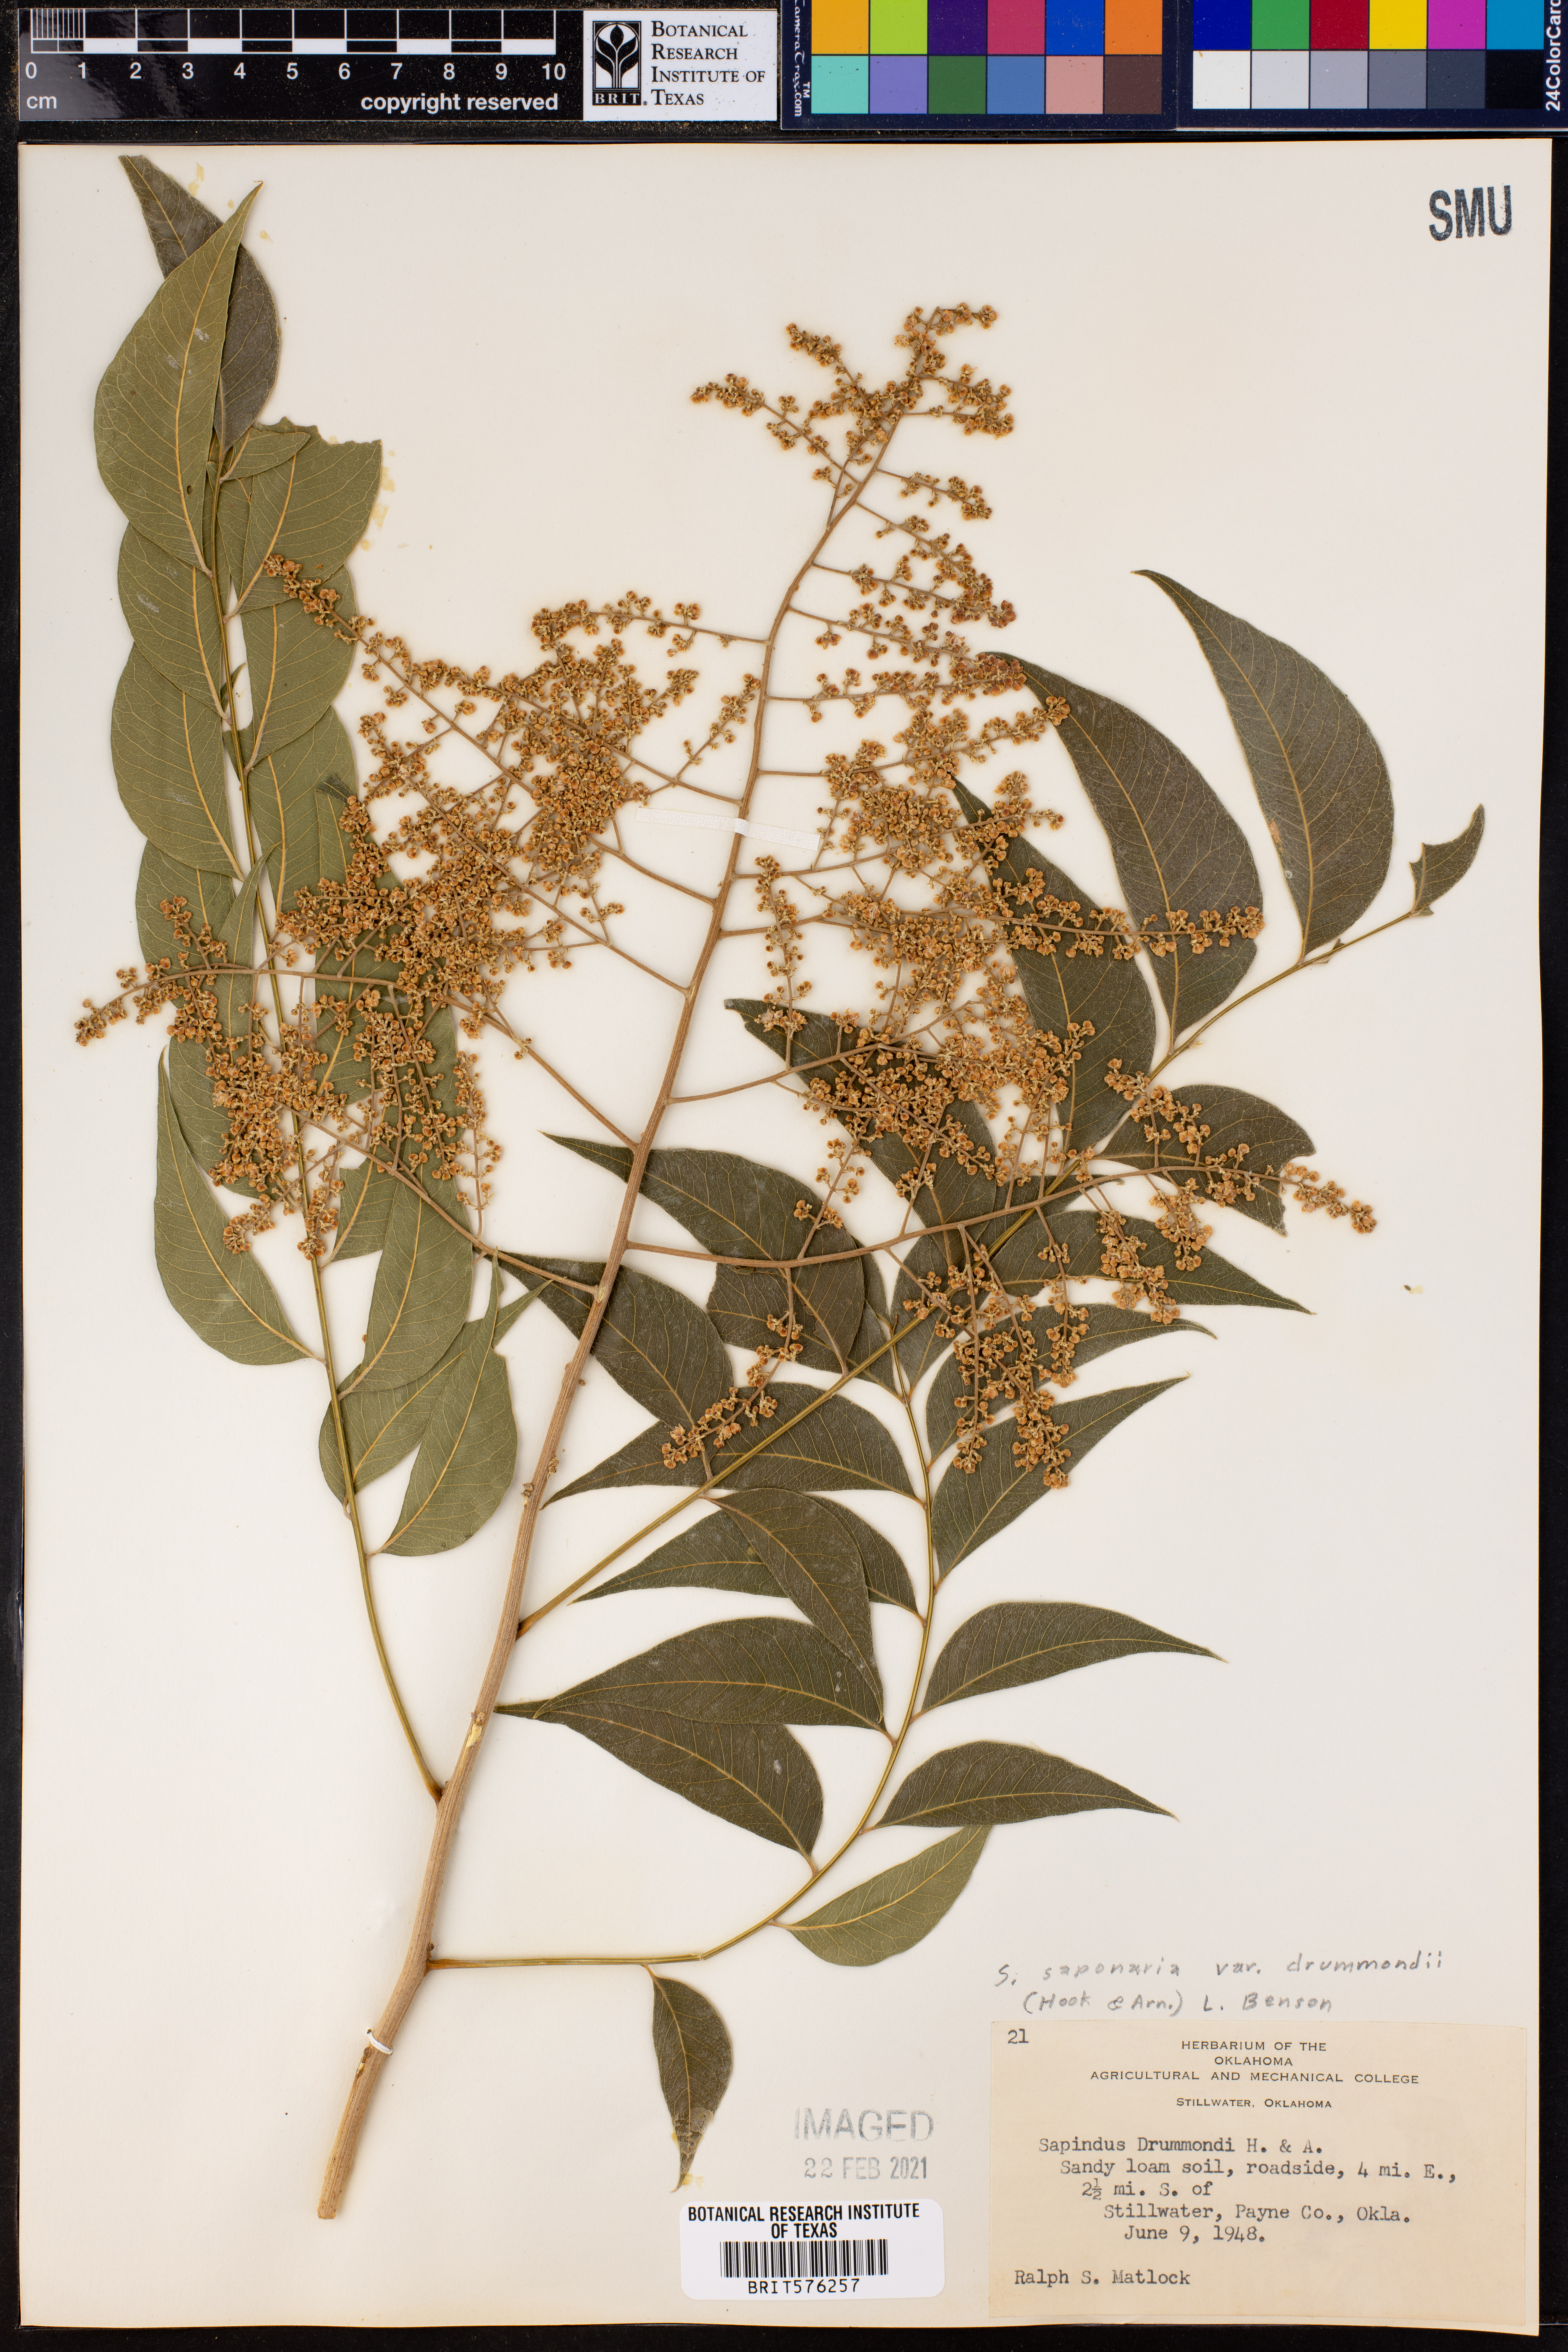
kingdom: Plantae
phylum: Tracheophyta
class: Magnoliopsida
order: Sapindales
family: Sapindaceae
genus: Sapindus
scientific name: Sapindus drummondii
